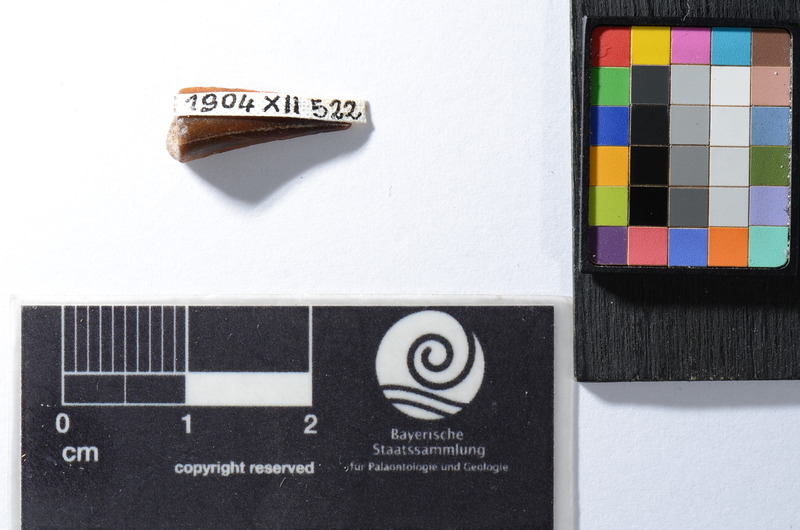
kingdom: Animalia
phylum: Chordata
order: Perciformes
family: Sphyraenidae
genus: Sphyraena
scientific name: Sphyraena Saurocephalus fajumensis
